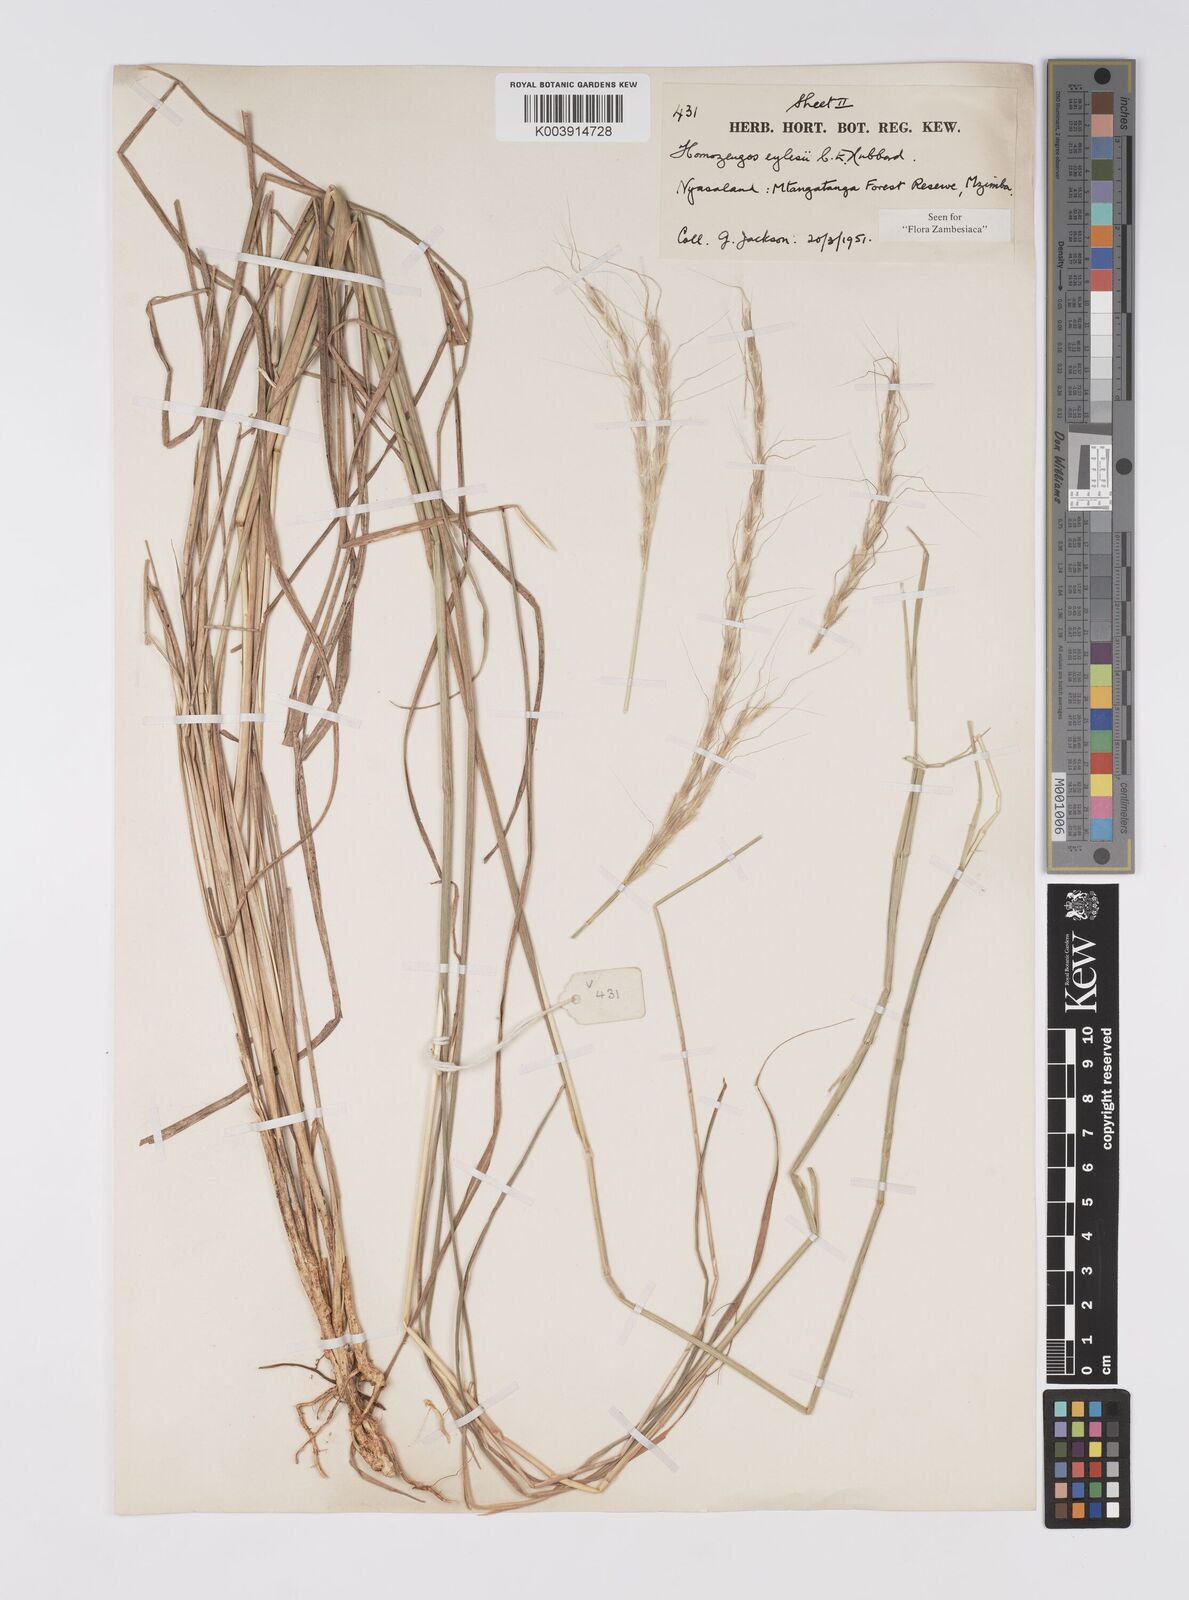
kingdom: Plantae
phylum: Tracheophyta
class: Liliopsida
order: Poales
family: Poaceae
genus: Homozeugos
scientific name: Homozeugos eylesii
